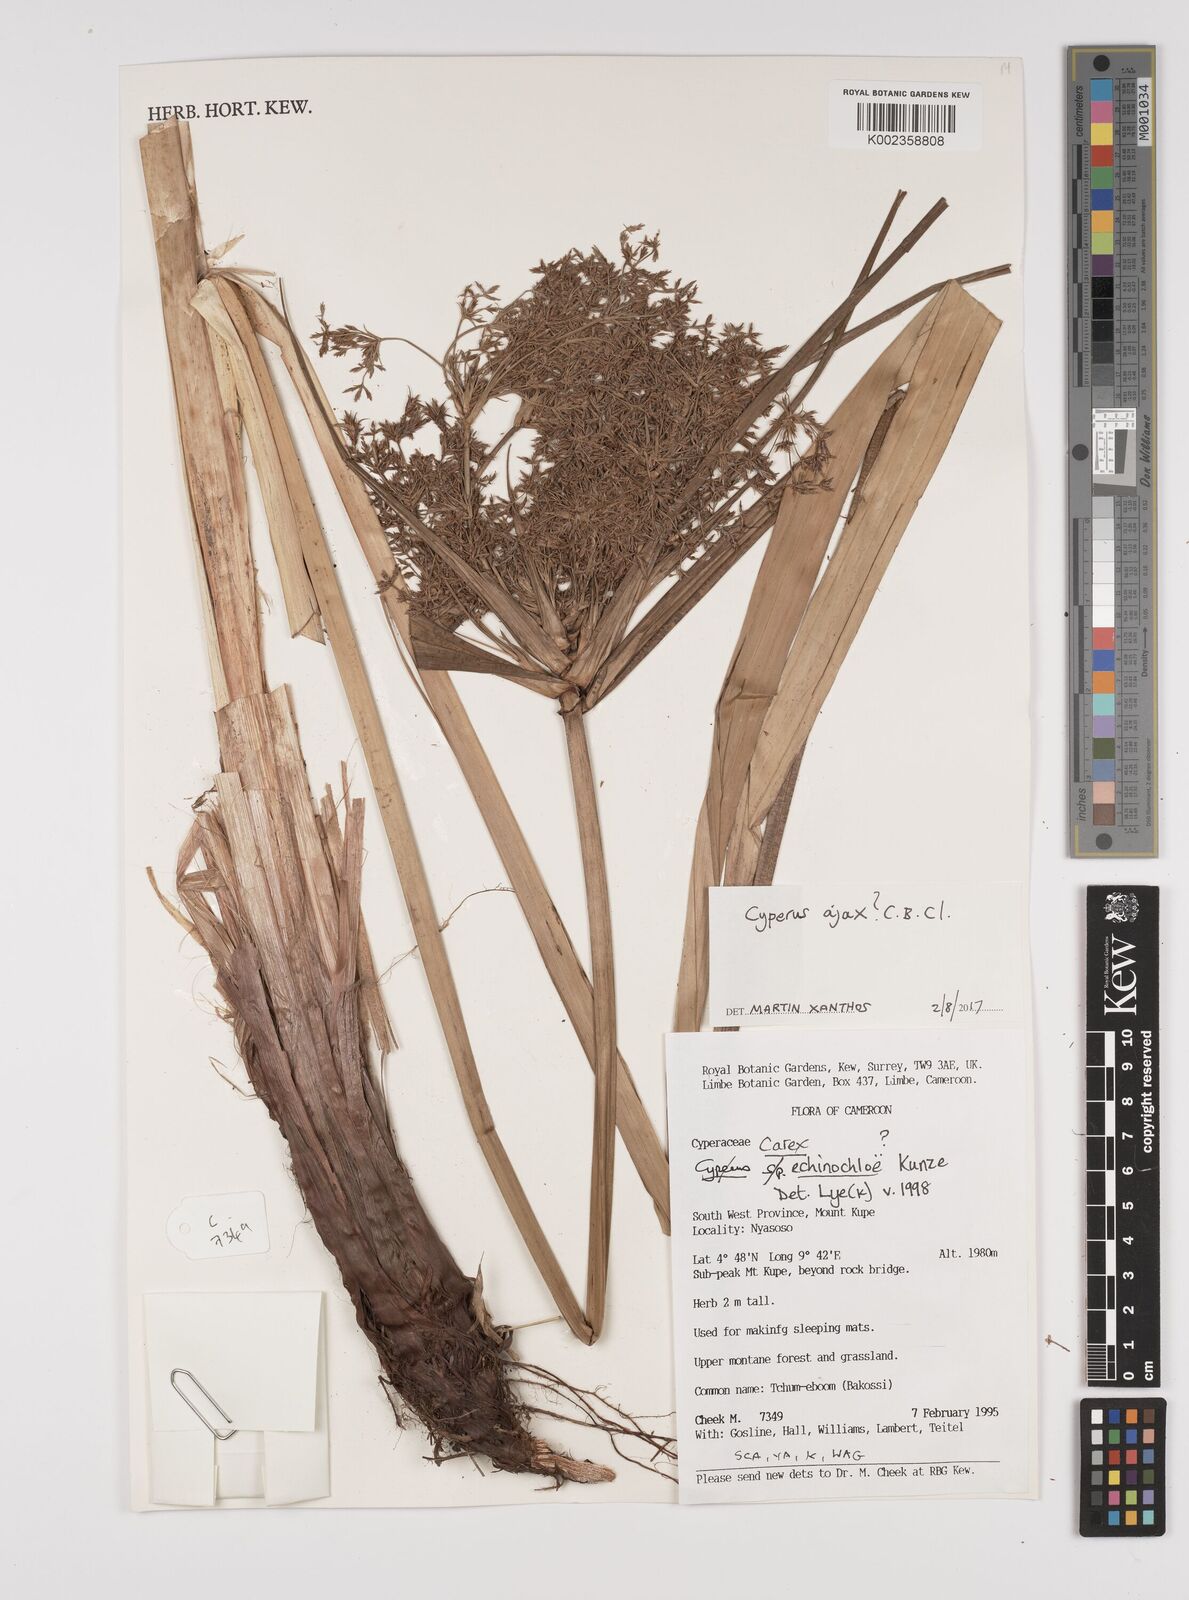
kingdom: Plantae
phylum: Tracheophyta
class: Liliopsida
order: Poales
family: Cyperaceae
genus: Cyperus
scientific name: Cyperus ajax
